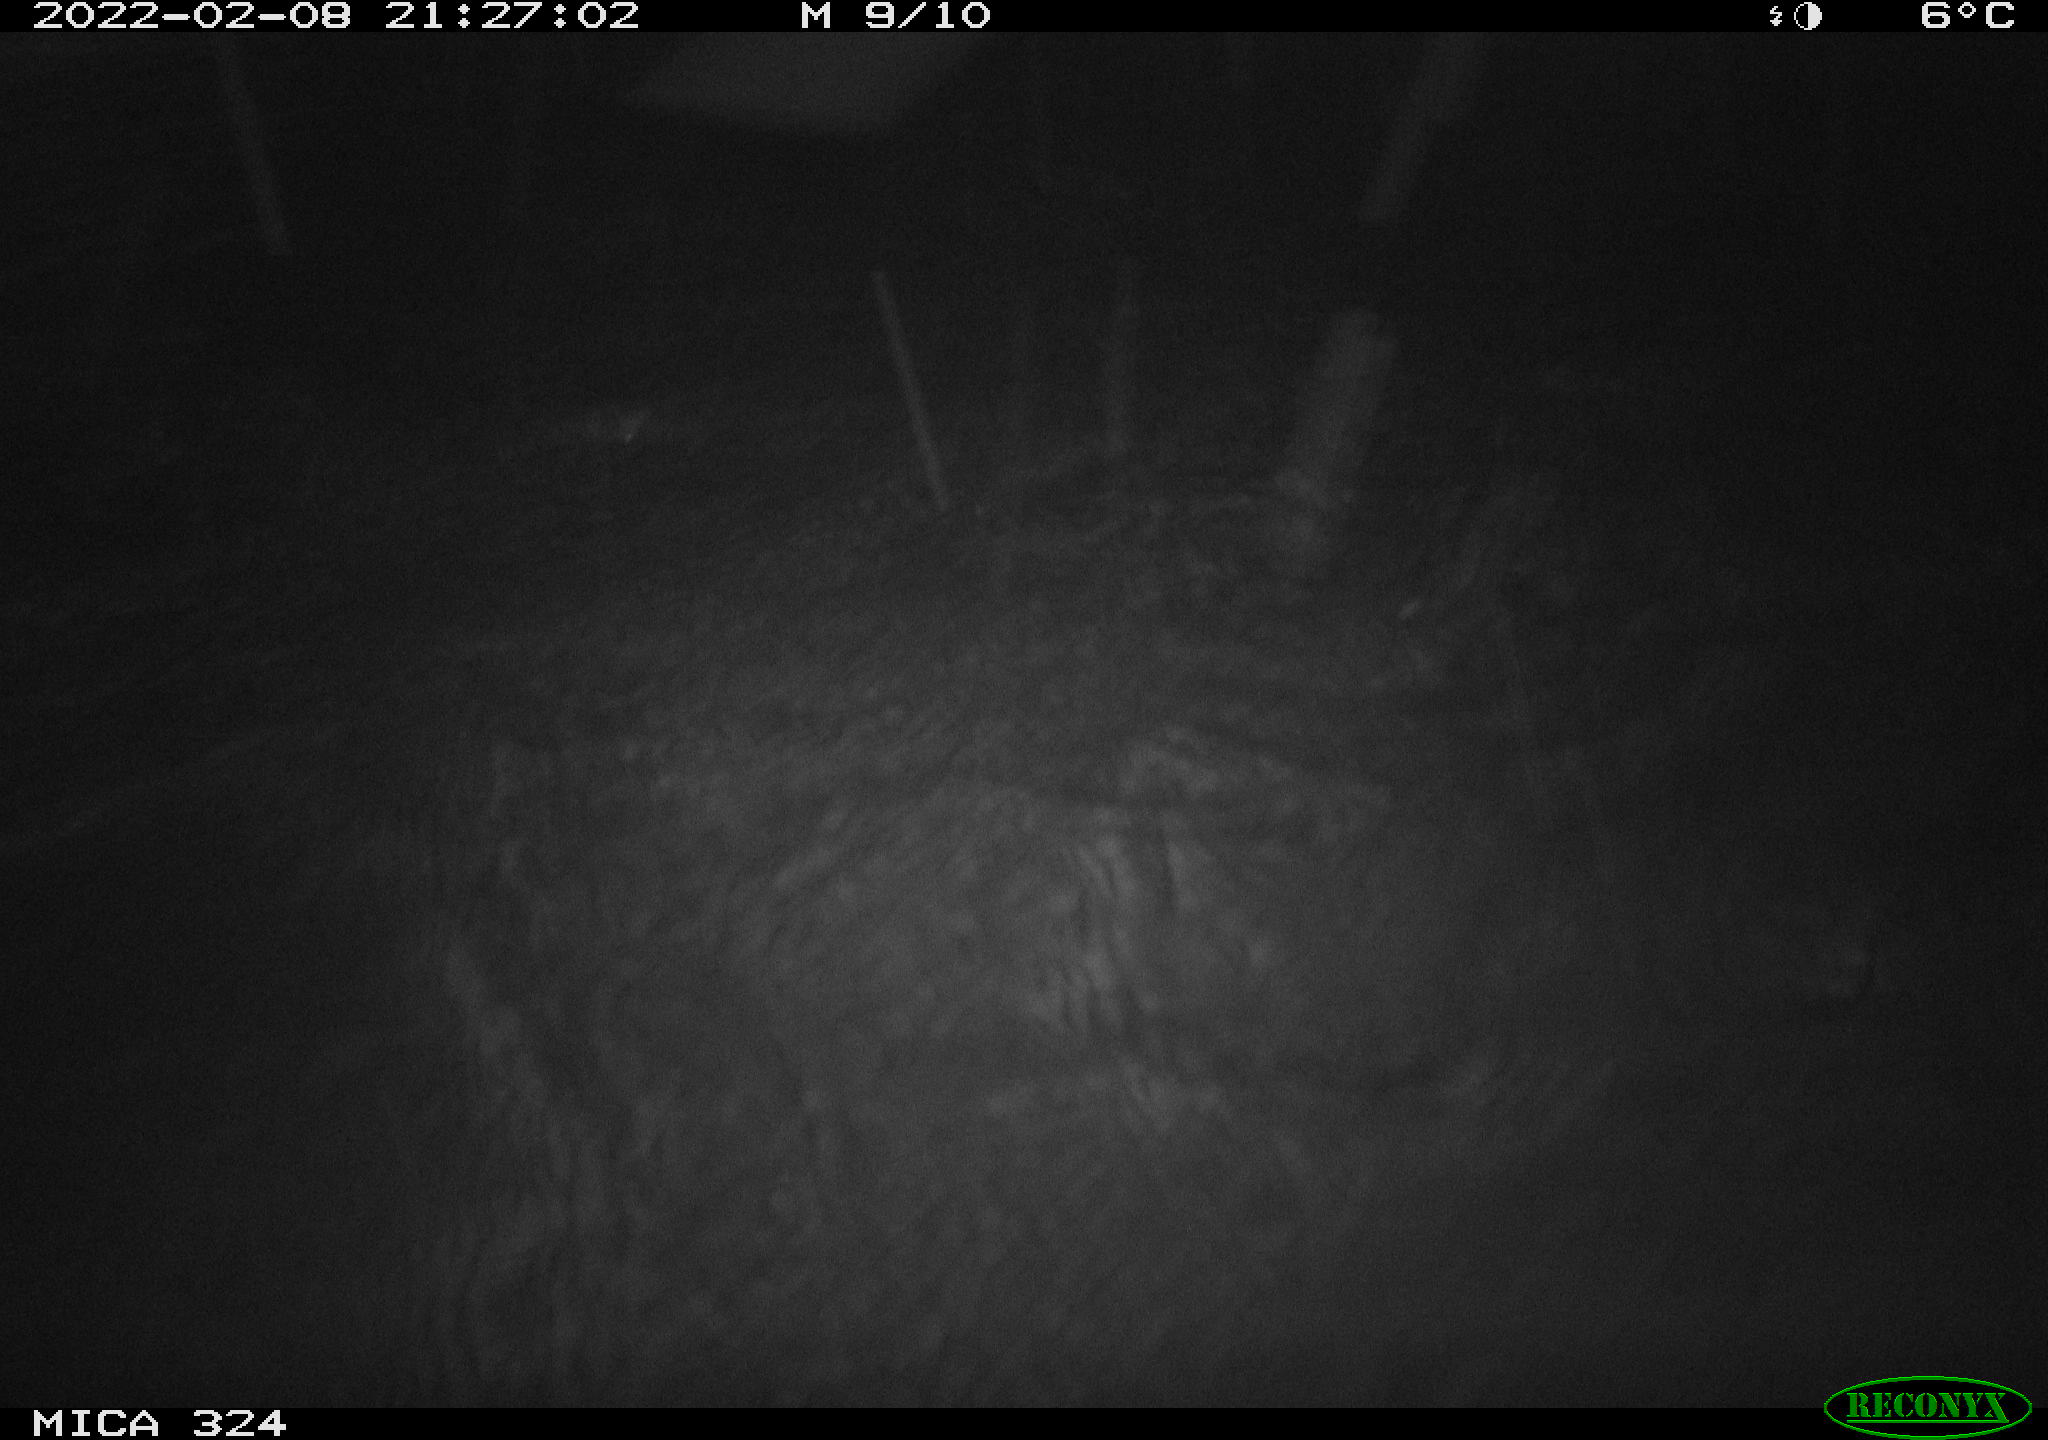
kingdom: Animalia
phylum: Chordata
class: Mammalia
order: Rodentia
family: Cricetidae
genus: Ondatra
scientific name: Ondatra zibethicus
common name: Muskrat
